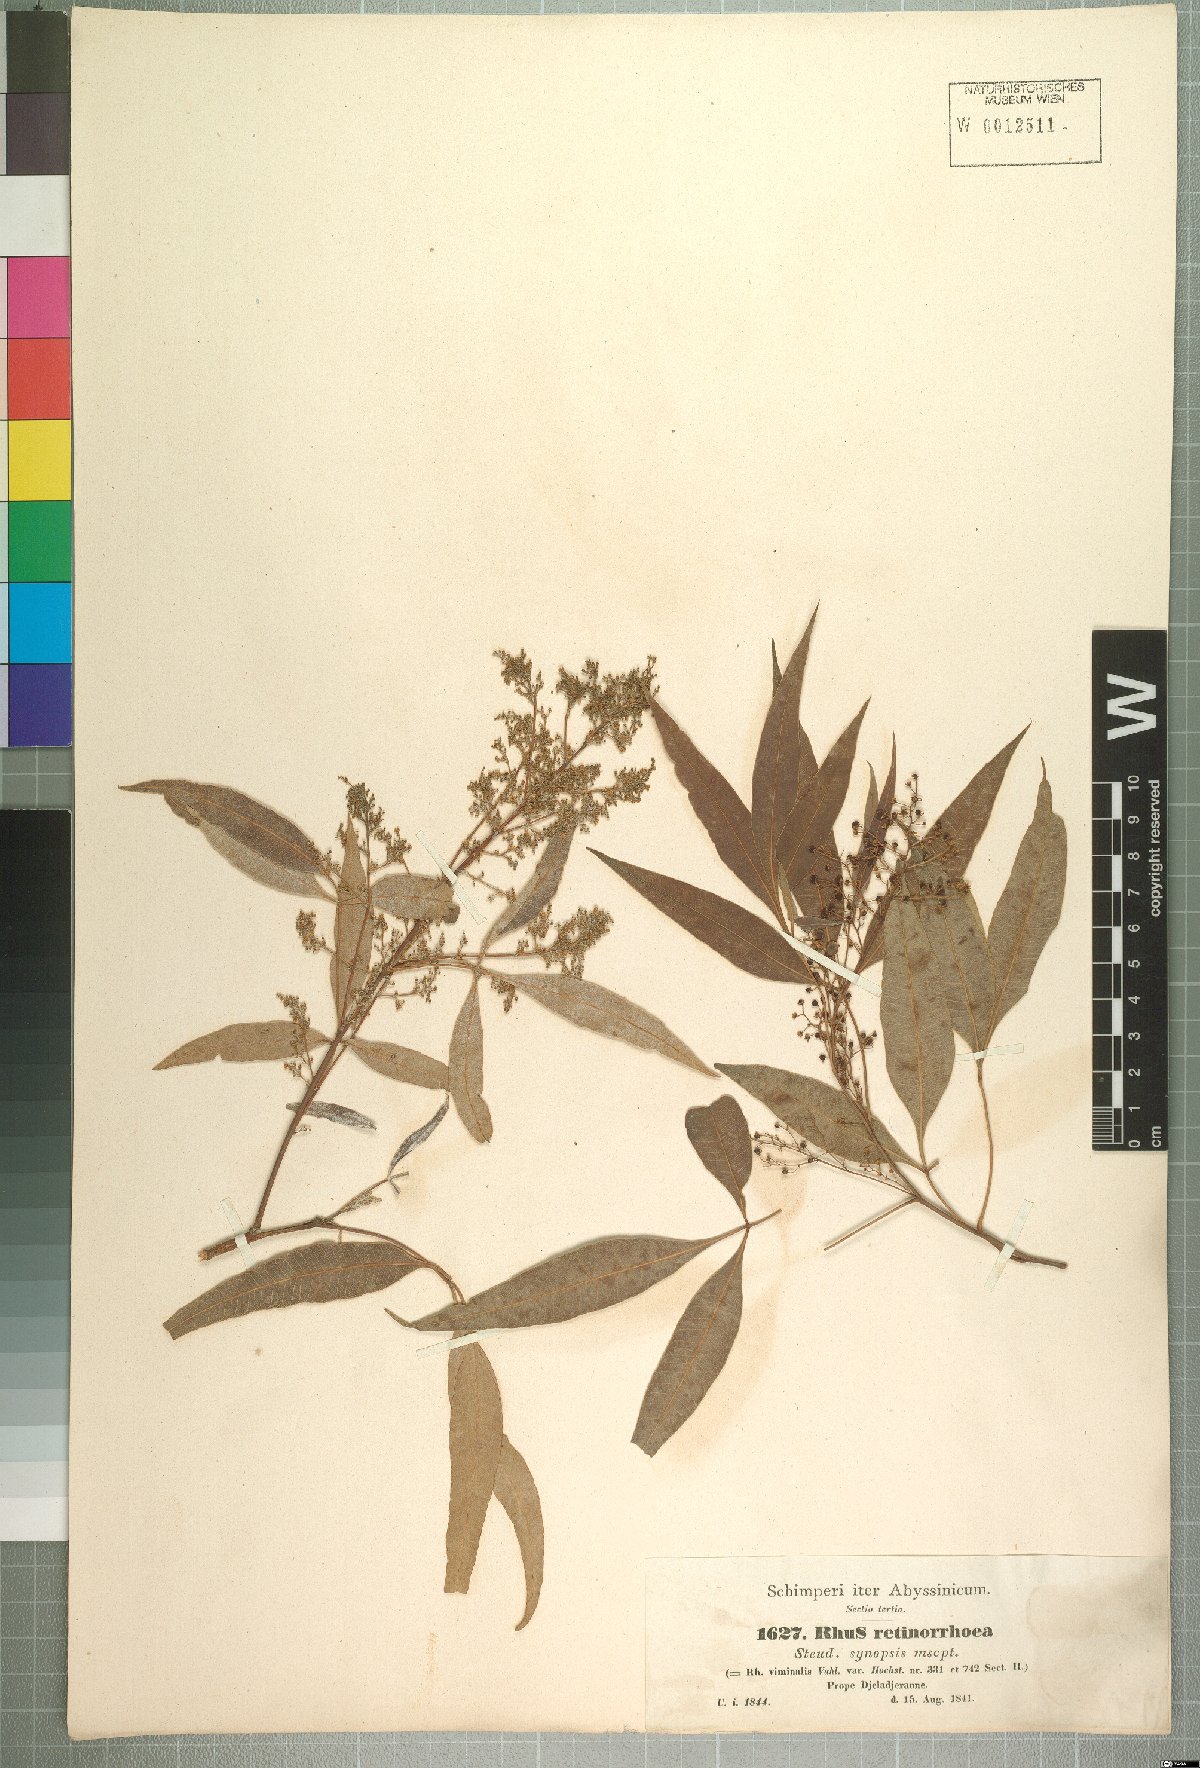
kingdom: Plantae
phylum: Tracheophyta
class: Magnoliopsida
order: Sapindales
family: Anacardiaceae
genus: Searsia
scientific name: Searsia retinorrhoea
